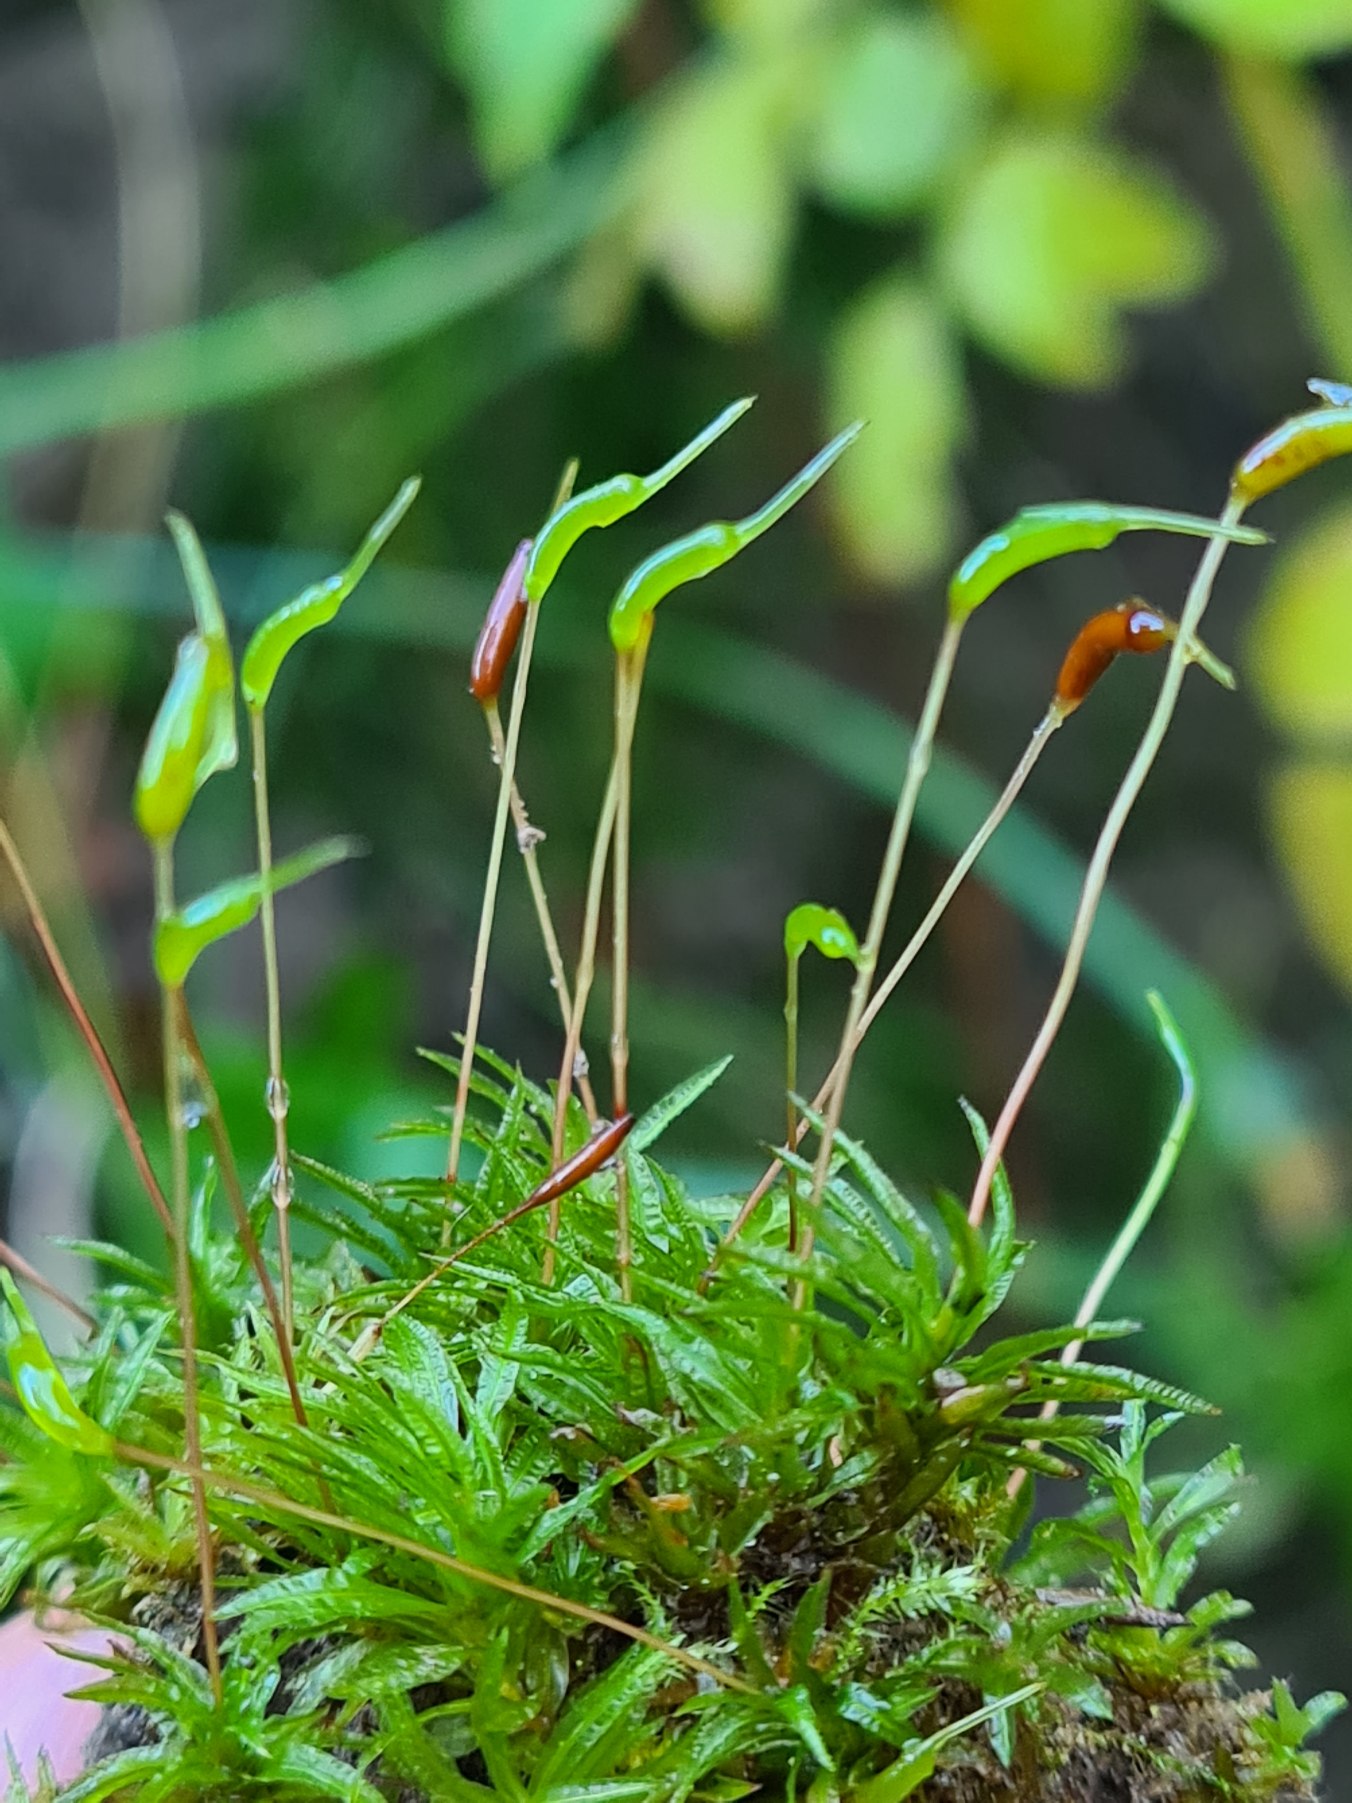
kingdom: Plantae
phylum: Bryophyta
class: Polytrichopsida
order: Polytrichales
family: Polytrichaceae
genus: Atrichum
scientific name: Atrichum undulatum
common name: Bølget katrinemos
